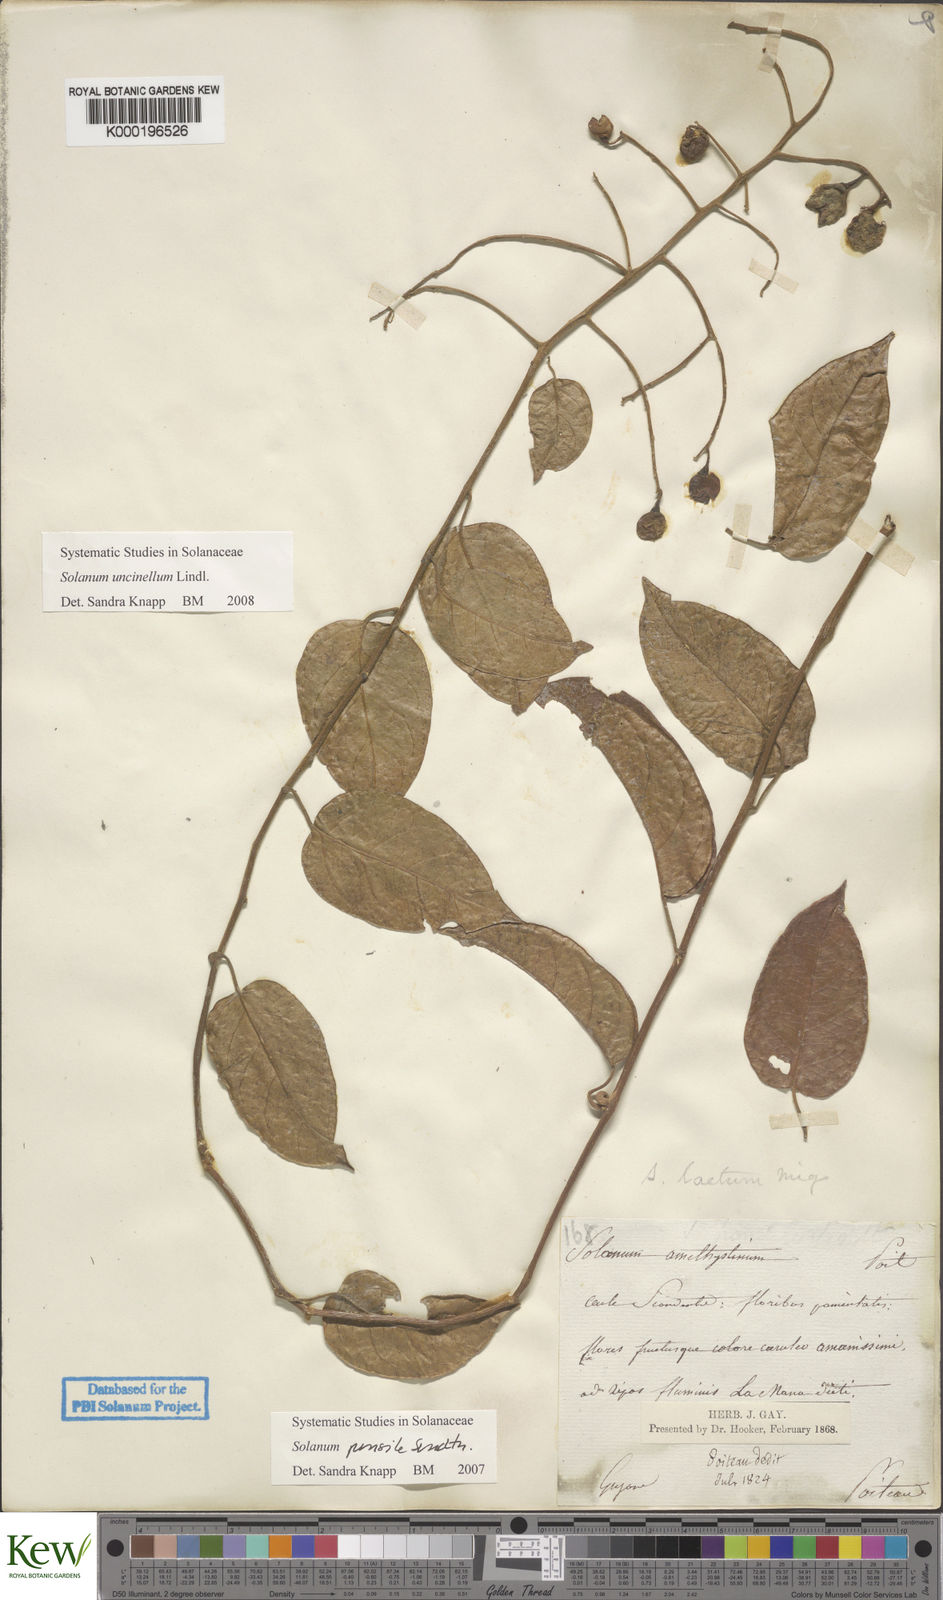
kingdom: Plantae
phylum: Tracheophyta
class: Magnoliopsida
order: Solanales
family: Solanaceae
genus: Solanum
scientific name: Solanum uncinellum
